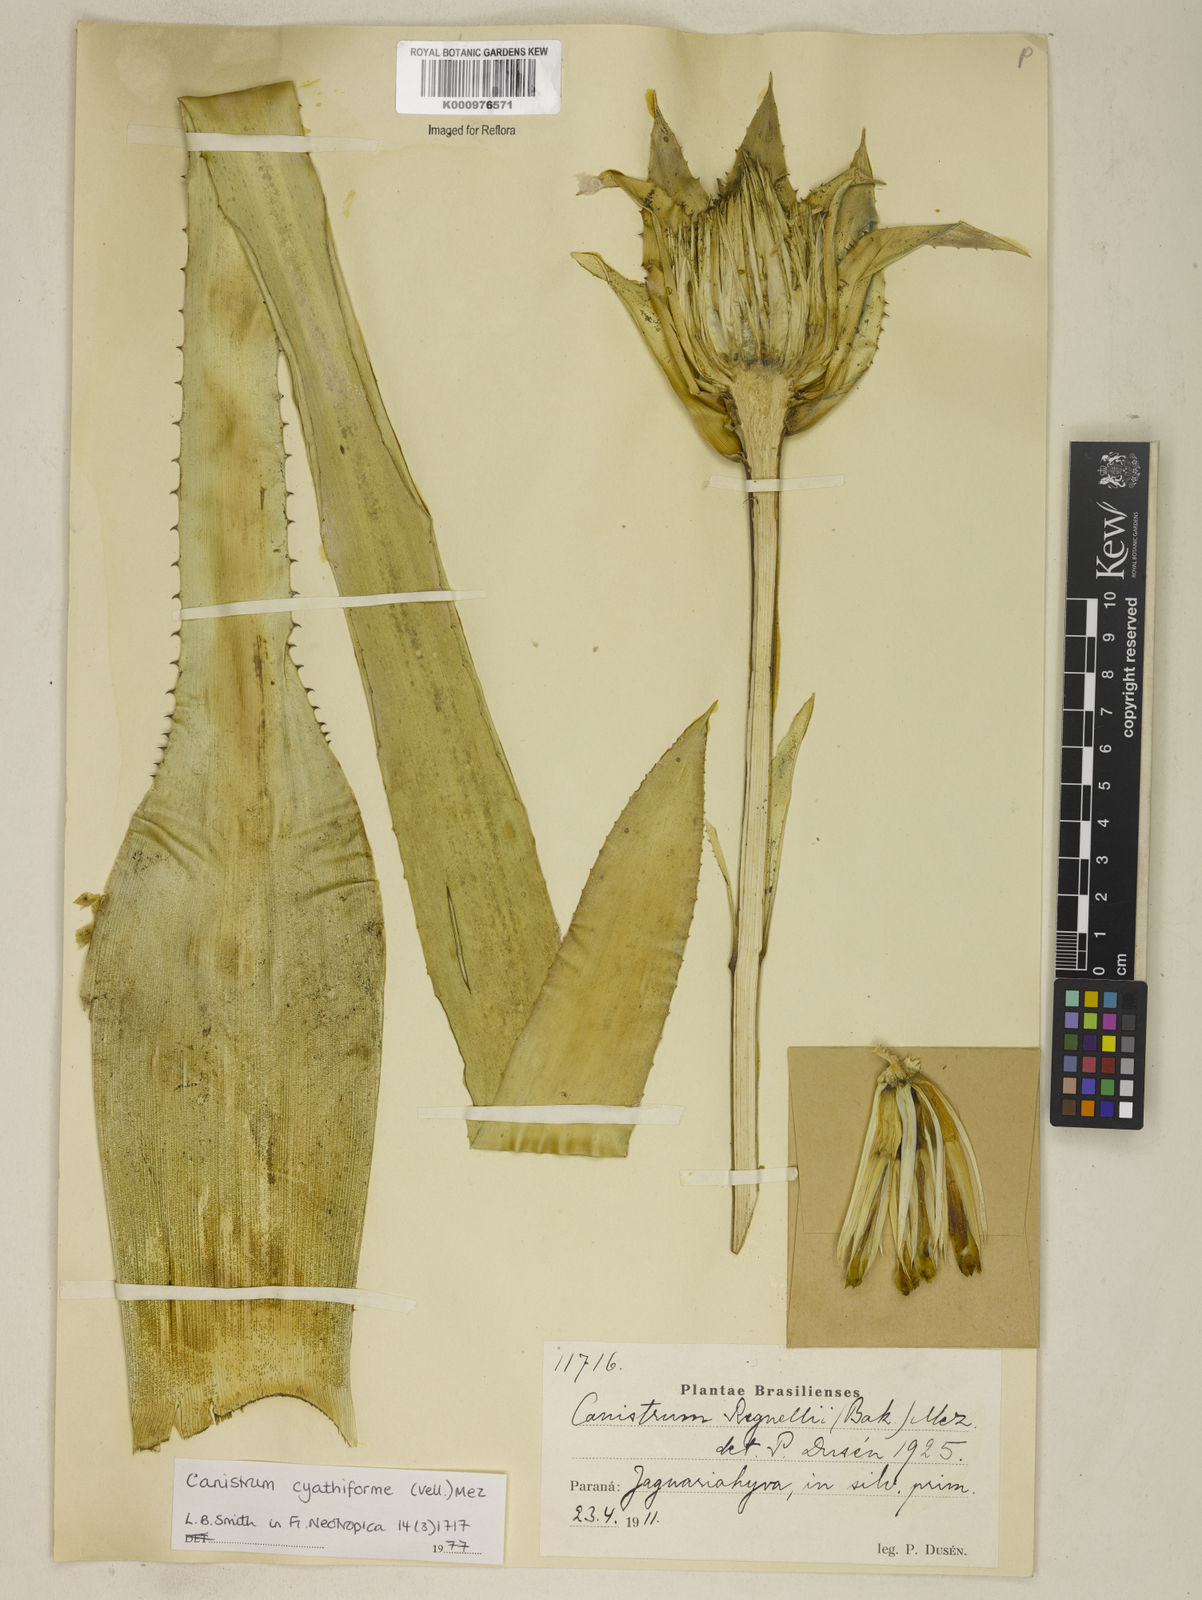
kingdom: Plantae
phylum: Tracheophyta
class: Liliopsida
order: Poales
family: Bromeliaceae
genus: Wittrockia
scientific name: Wittrockia cyathiformis
